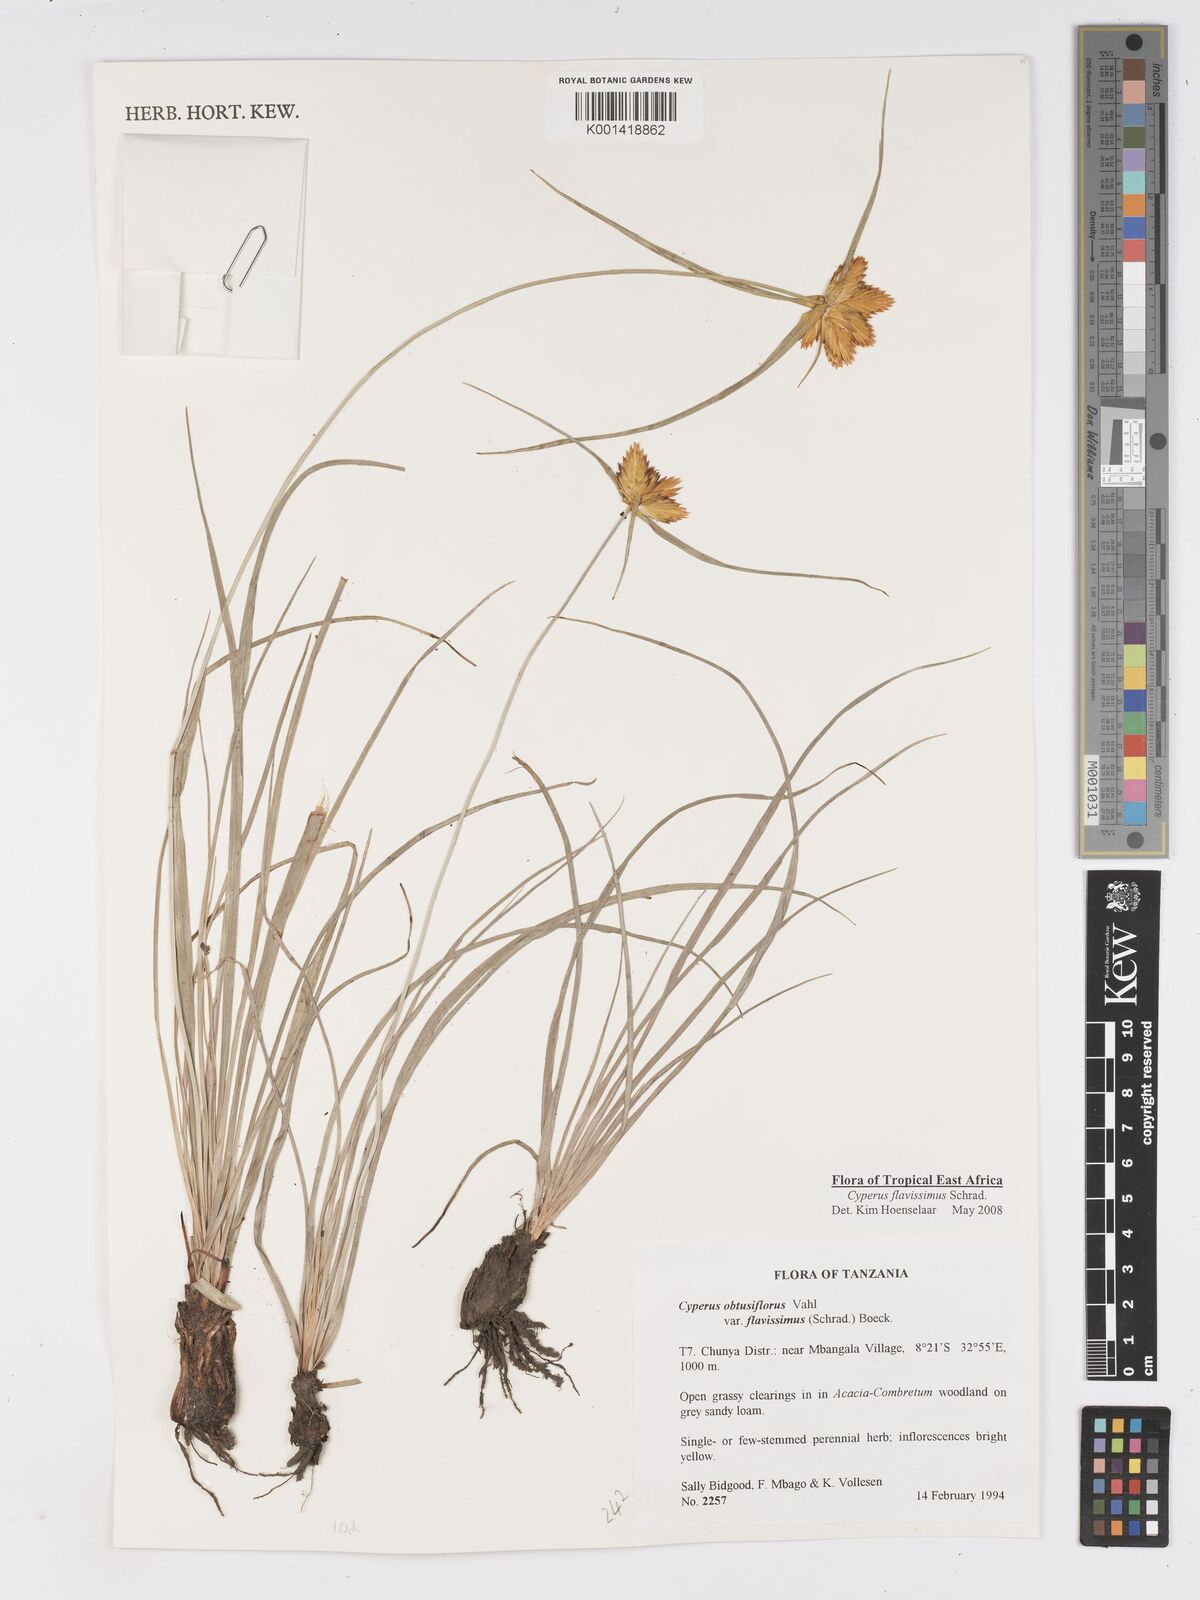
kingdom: Plantae
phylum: Tracheophyta
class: Liliopsida
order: Poales
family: Cyperaceae
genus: Cyperus
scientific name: Cyperus sphaerocephalus
